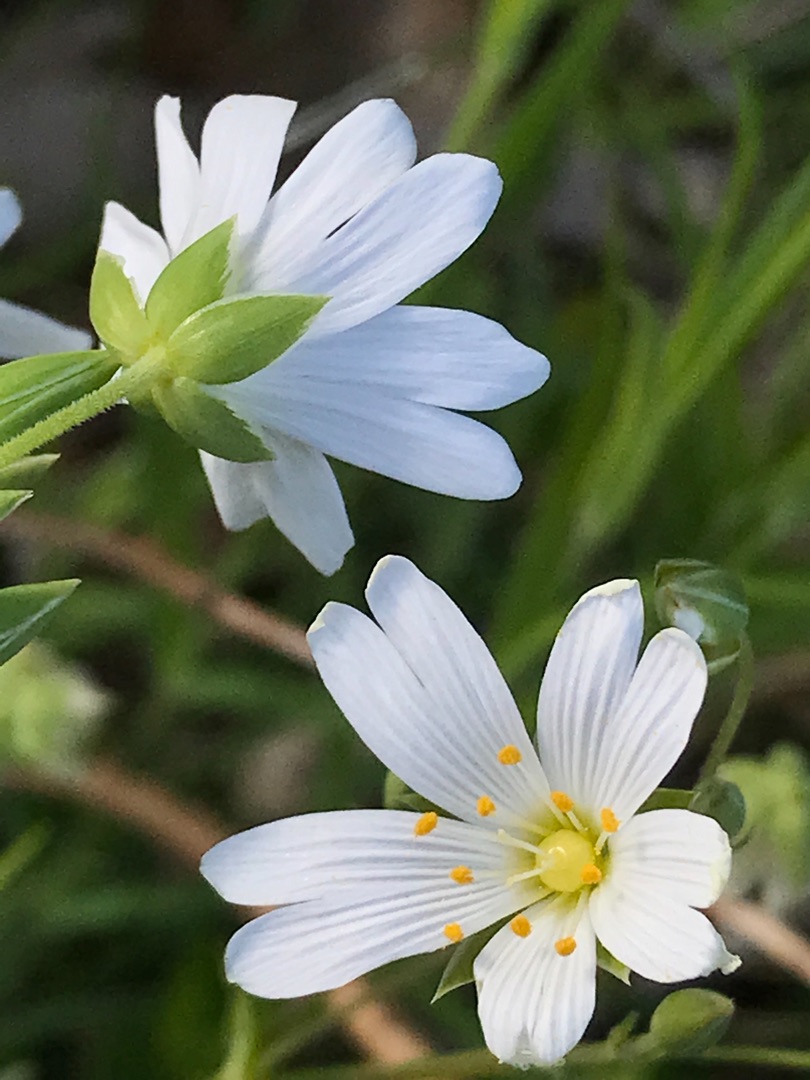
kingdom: Plantae
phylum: Tracheophyta
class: Magnoliopsida
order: Caryophyllales
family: Caryophyllaceae
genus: Rabelera
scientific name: Rabelera holostea
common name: Stor fladstjerne
